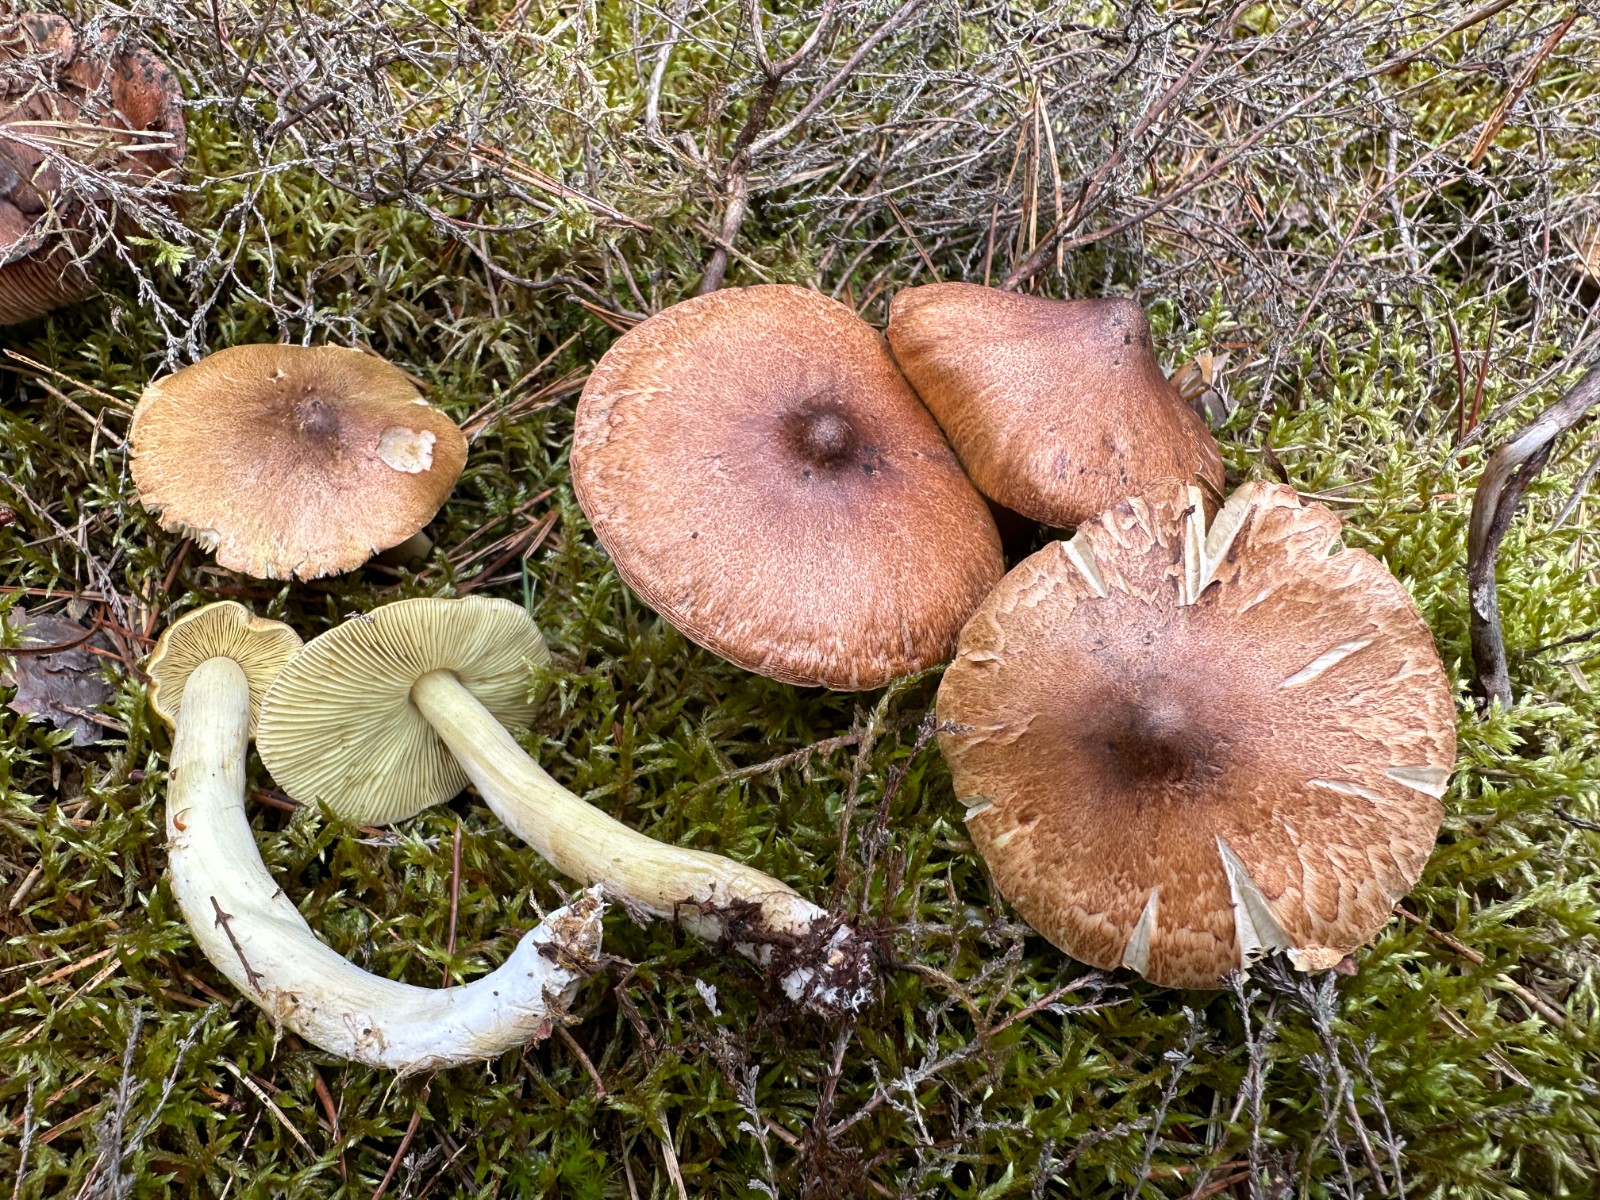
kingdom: Fungi
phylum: Basidiomycota
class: Agaricomycetes
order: Agaricales
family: Tricholomataceae
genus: Tricholoma
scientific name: Tricholoma aestuans
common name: kegle-ridderhat
